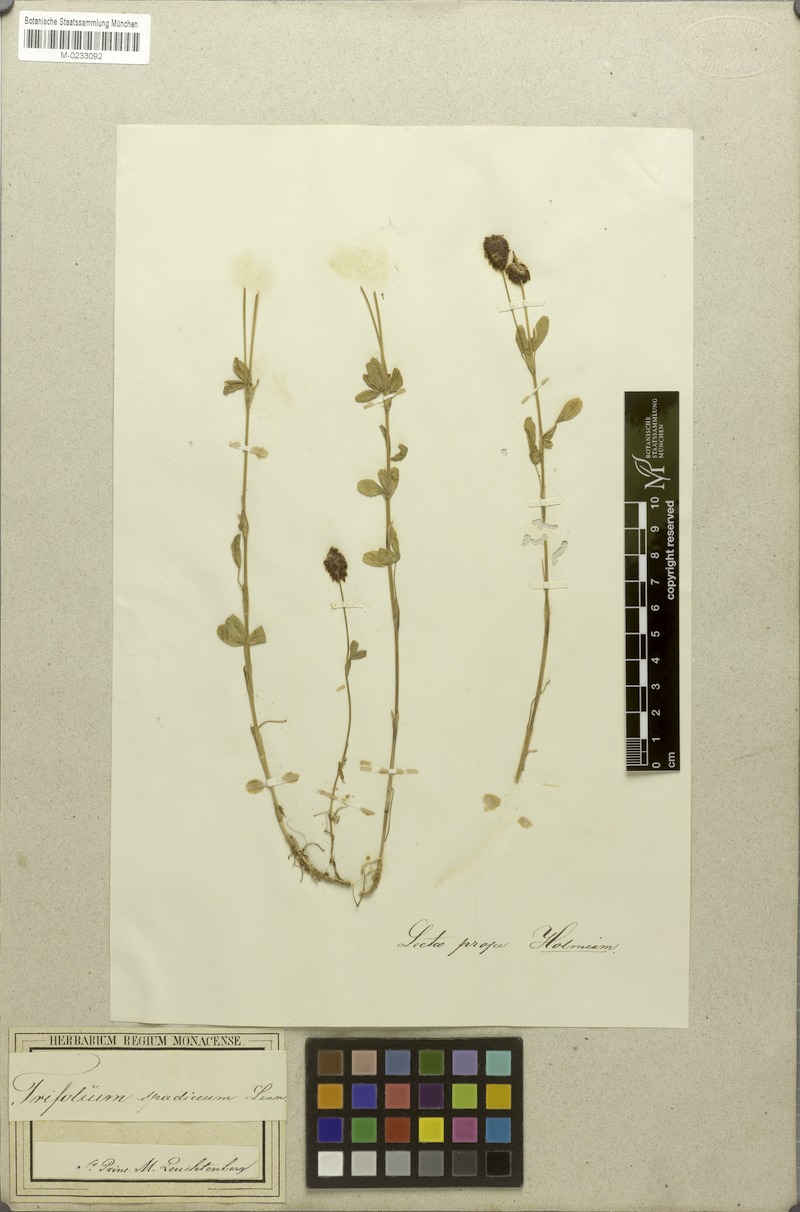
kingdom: Plantae
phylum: Tracheophyta
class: Magnoliopsida
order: Fabales
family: Fabaceae
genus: Trifolium
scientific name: Trifolium spadiceum
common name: Brown moor clover
